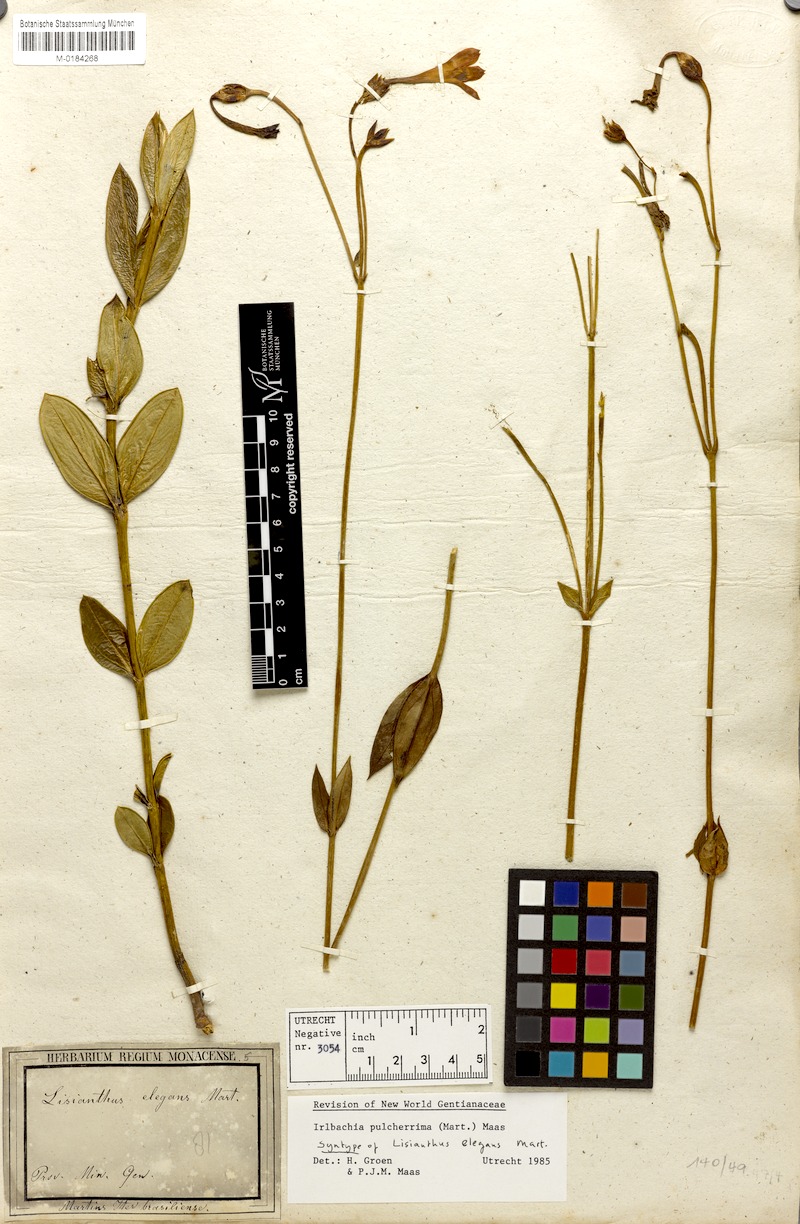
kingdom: Plantae
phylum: Tracheophyta
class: Magnoliopsida
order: Gentianales
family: Gentianaceae
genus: Calolisianthus
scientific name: Calolisianthus pulcherrimus
